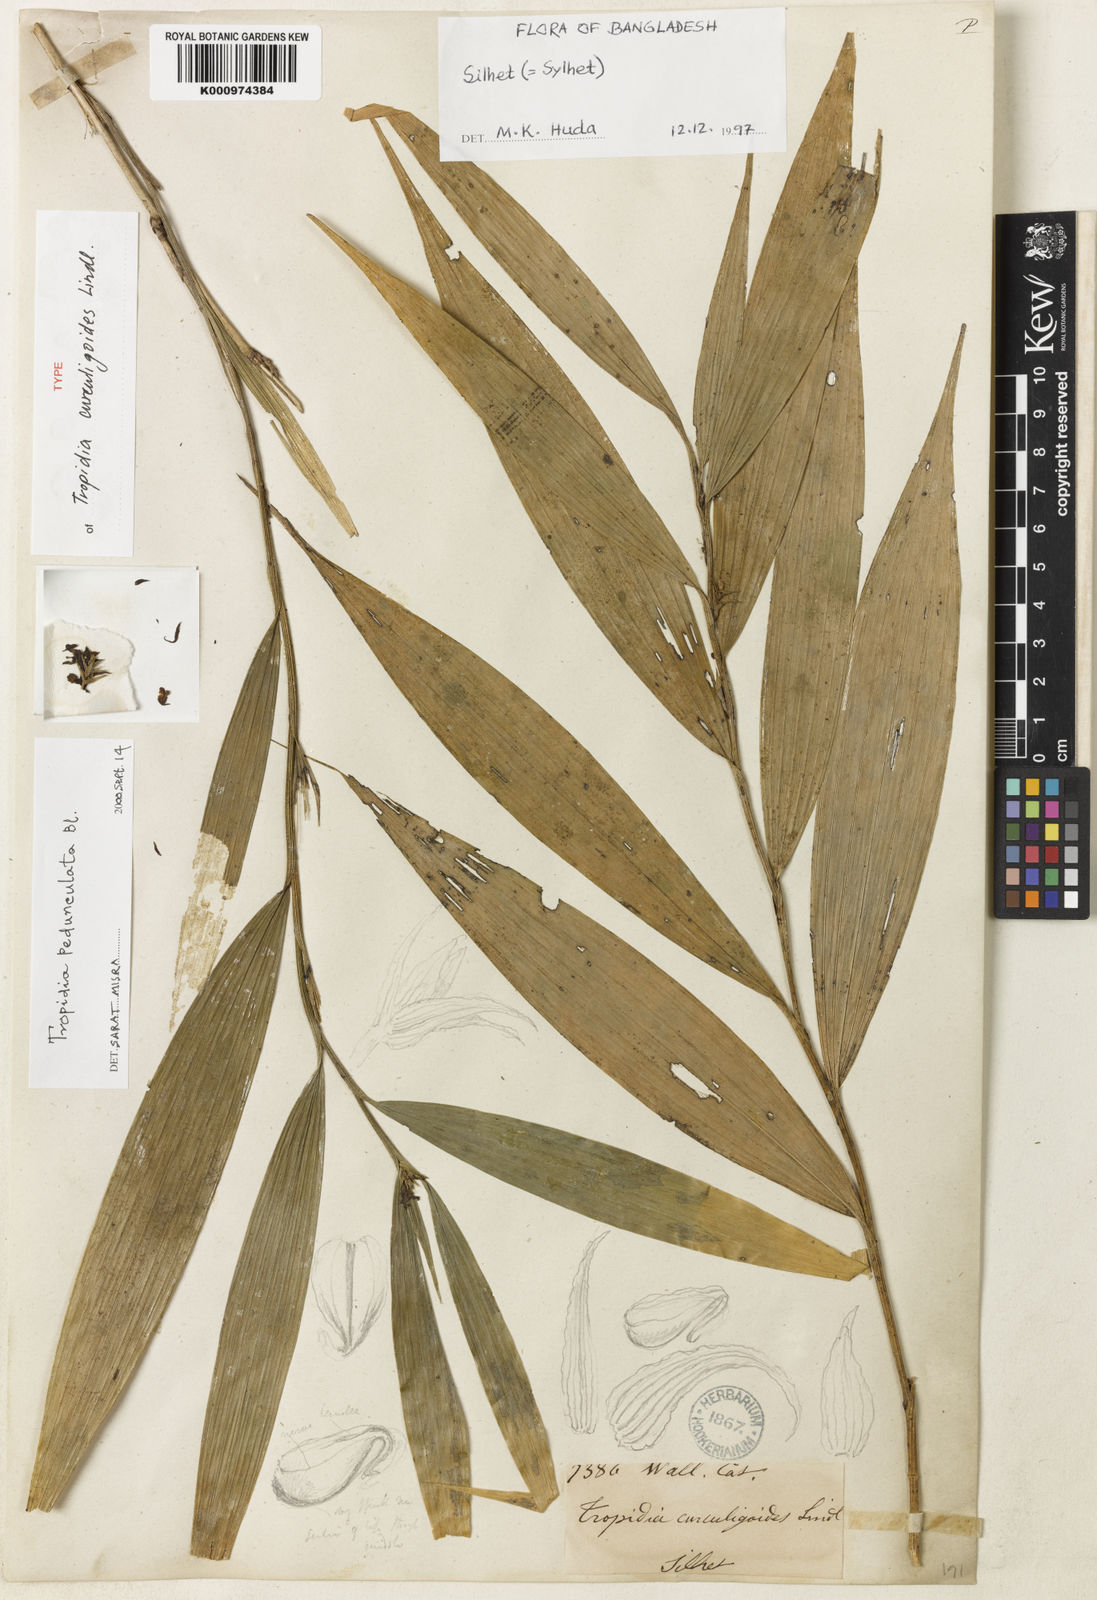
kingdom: Plantae
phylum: Tracheophyta
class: Liliopsida
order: Asparagales
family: Orchidaceae
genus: Tropidia
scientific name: Tropidia curculigoides
